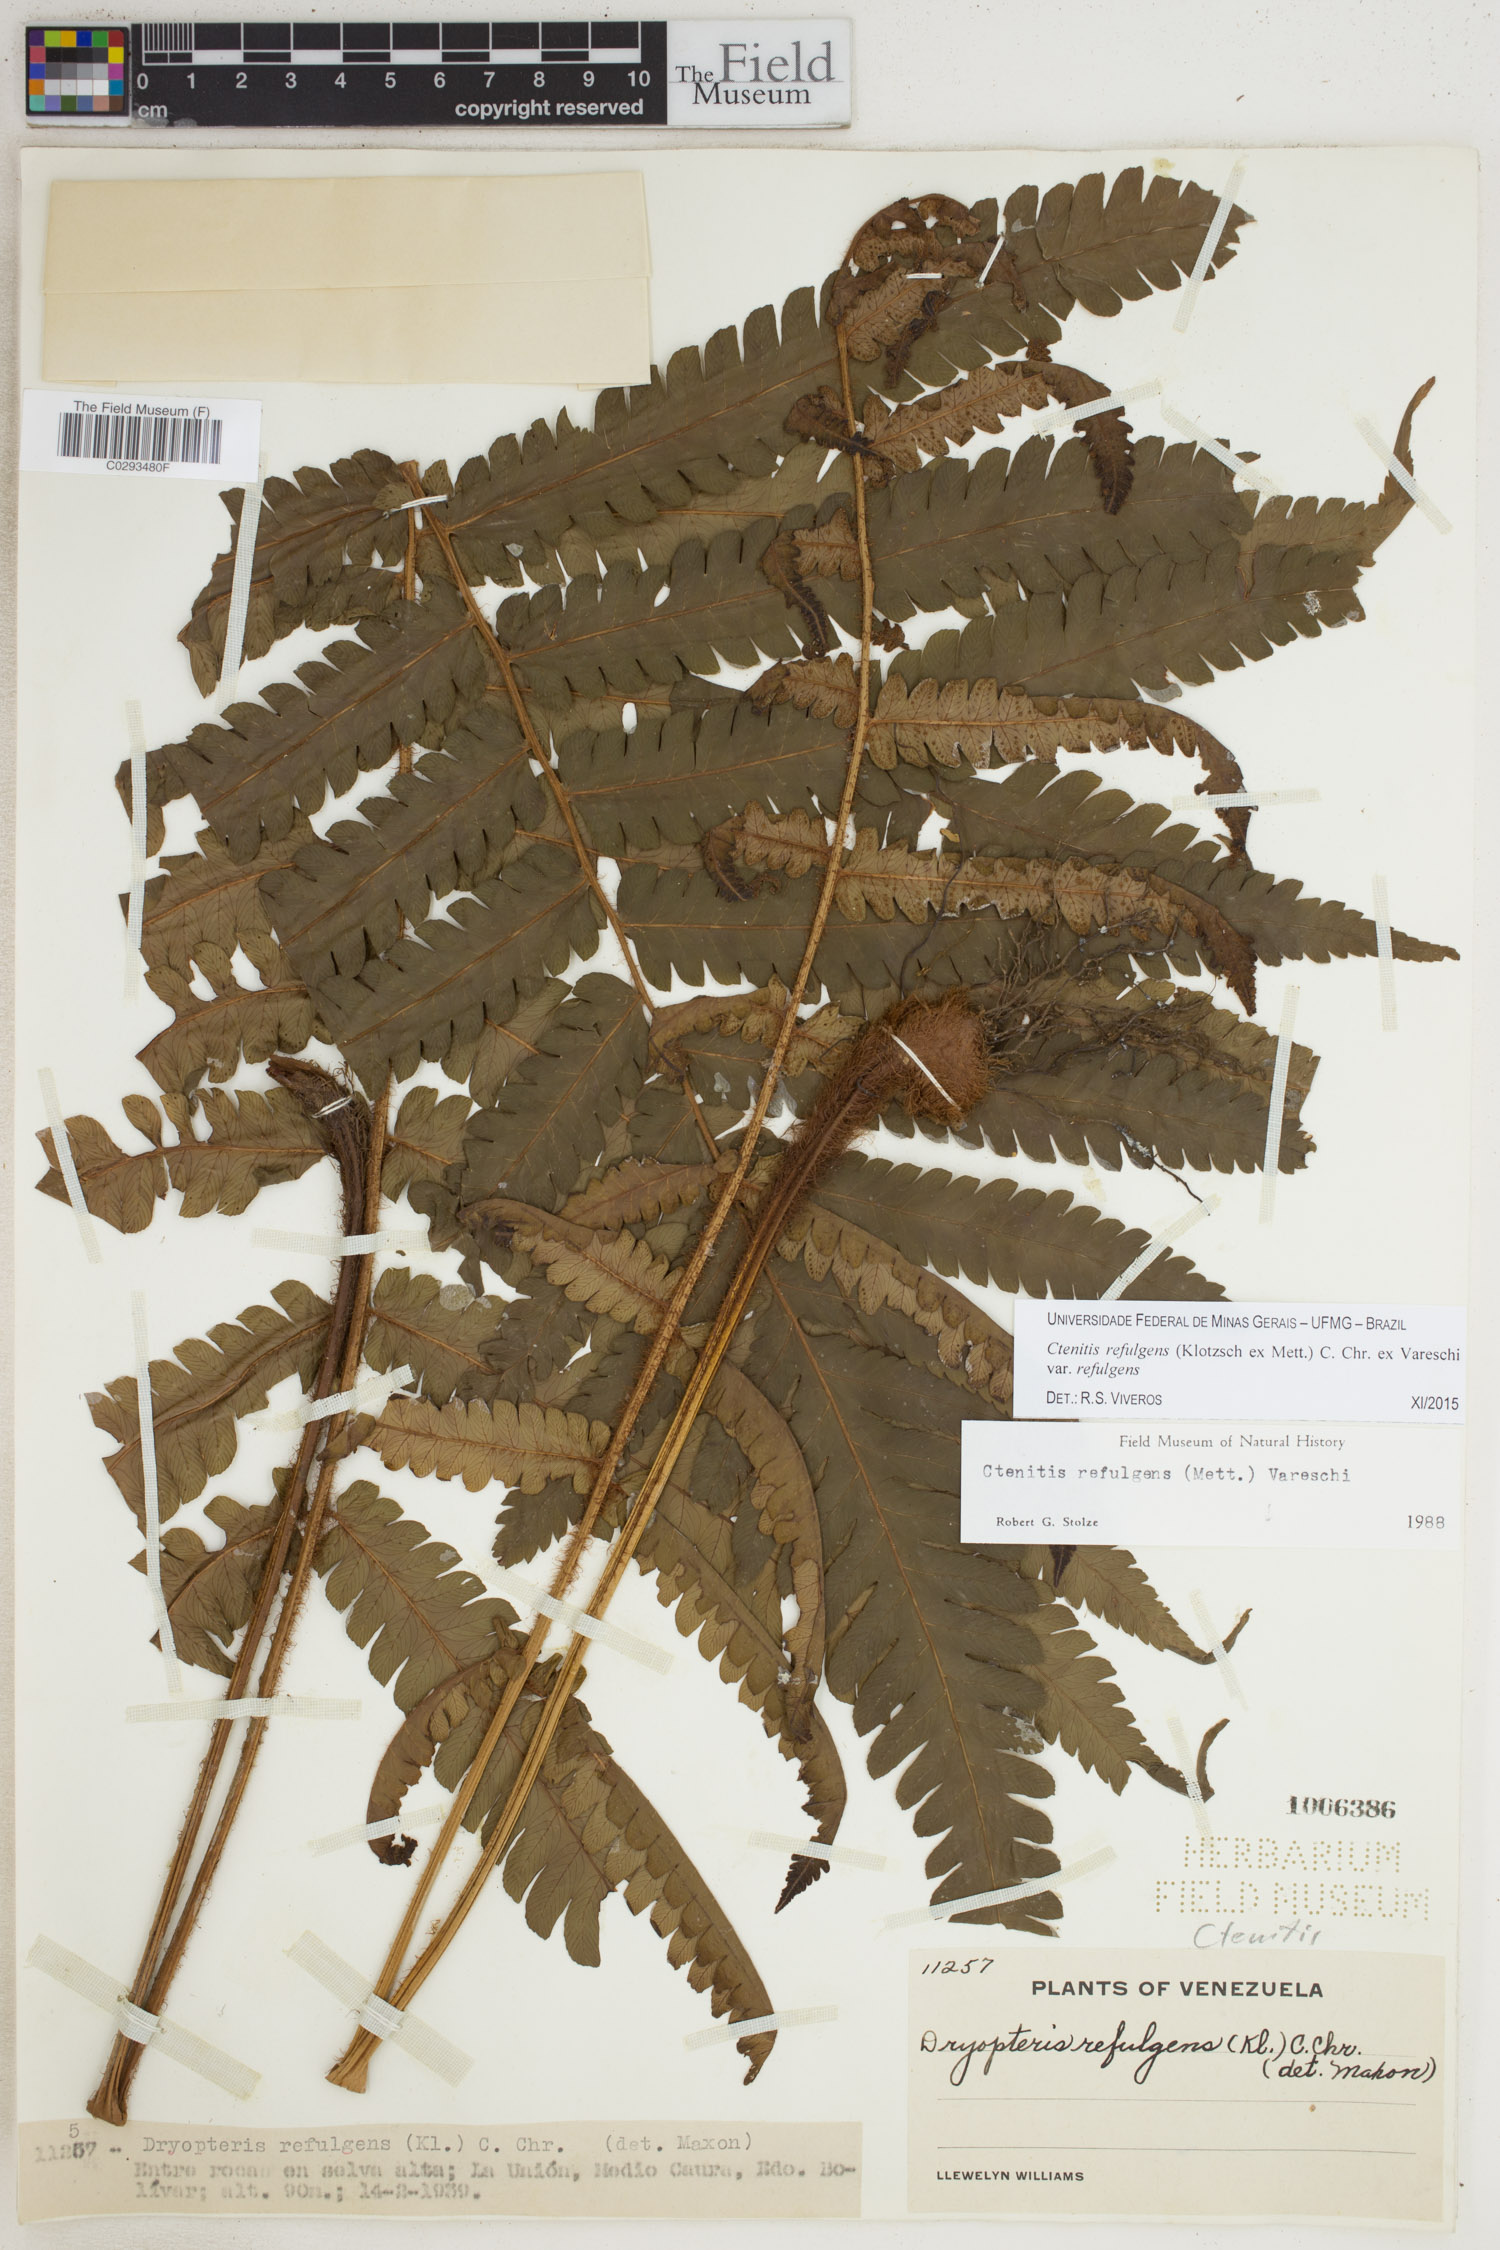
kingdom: Plantae
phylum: Tracheophyta
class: Polypodiopsida
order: Polypodiales
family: Dryopteridaceae
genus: Ctenitis
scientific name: Ctenitis refulgens
